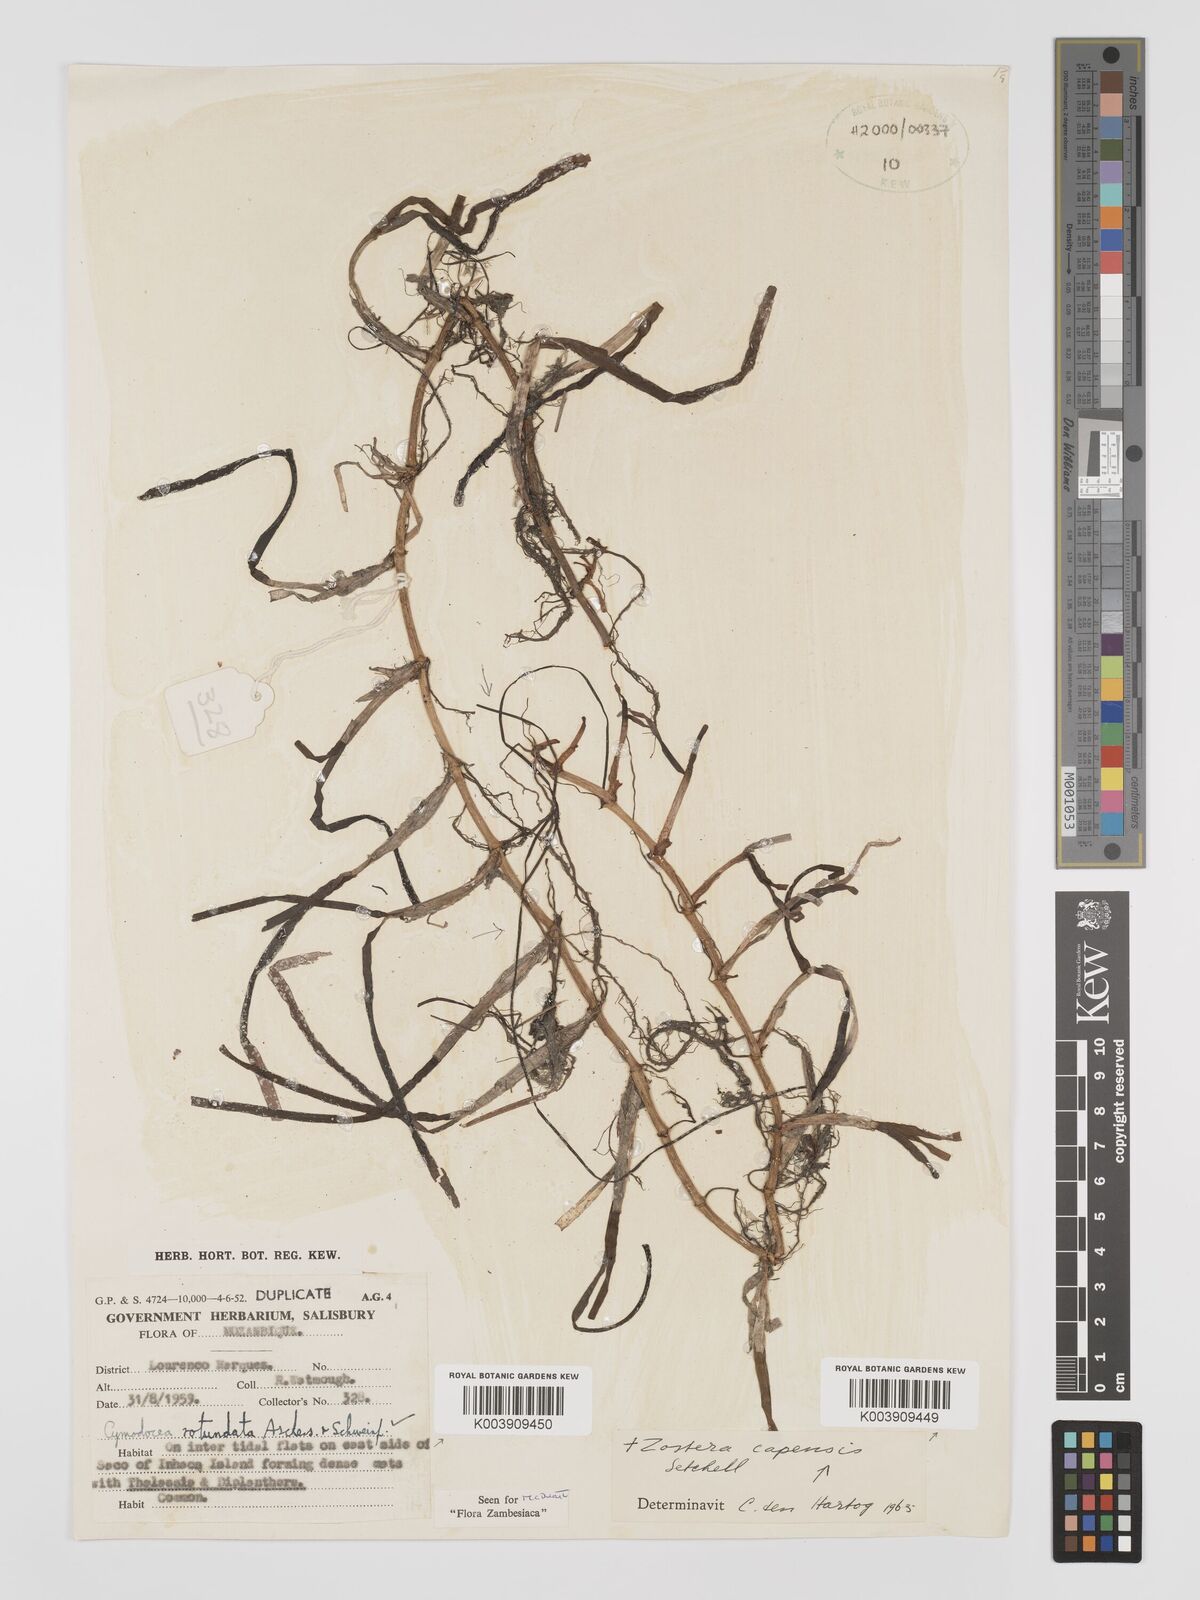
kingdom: Plantae
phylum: Tracheophyta
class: Liliopsida
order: Alismatales
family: Cymodoceaceae
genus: Cymodocea
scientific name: Cymodocea rotundata
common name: Species code: cr
